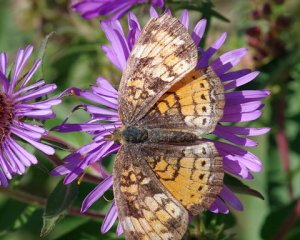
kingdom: Animalia
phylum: Arthropoda
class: Insecta
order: Lepidoptera
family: Nymphalidae
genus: Phyciodes
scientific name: Phyciodes tharos
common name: Northern Crescent
